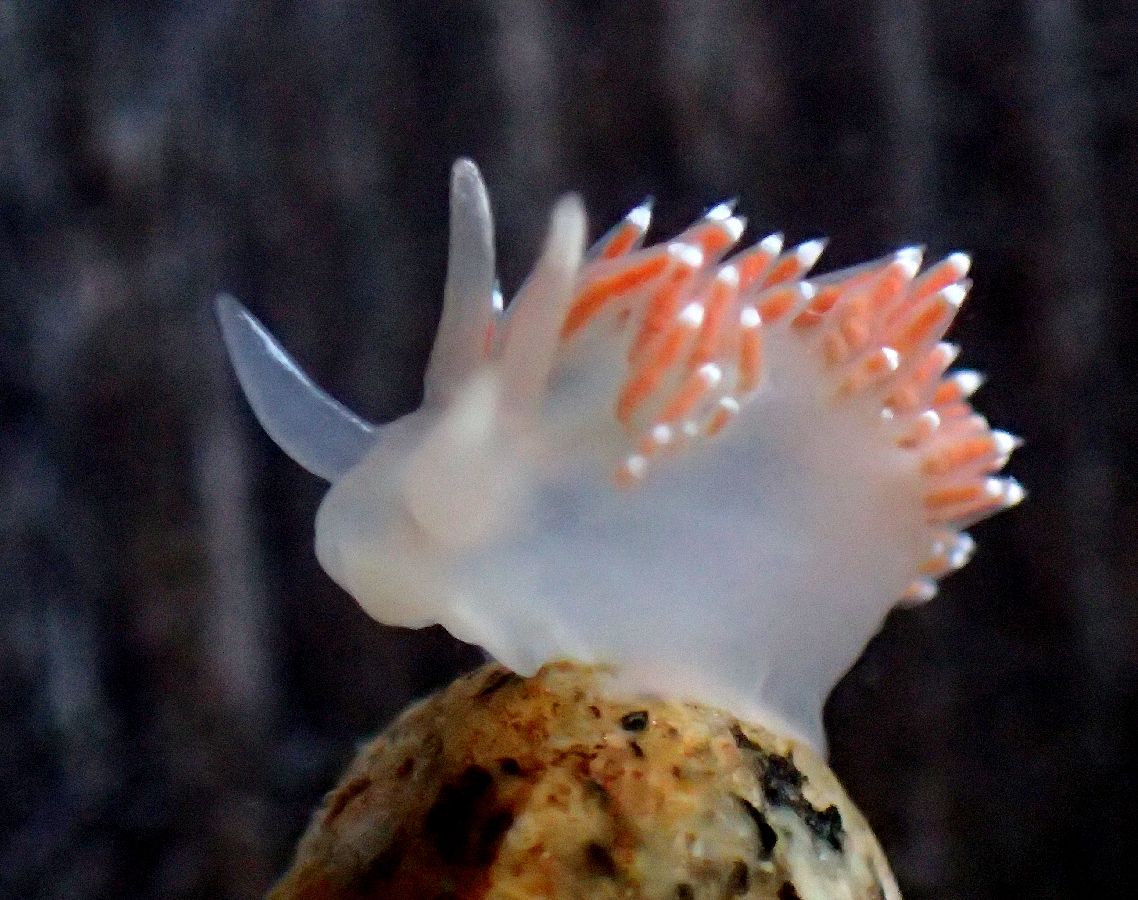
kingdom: Animalia
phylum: Mollusca
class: Gastropoda
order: Nudibranchia
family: Coryphellidae
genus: Coryphella
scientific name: Coryphella verrucosa
